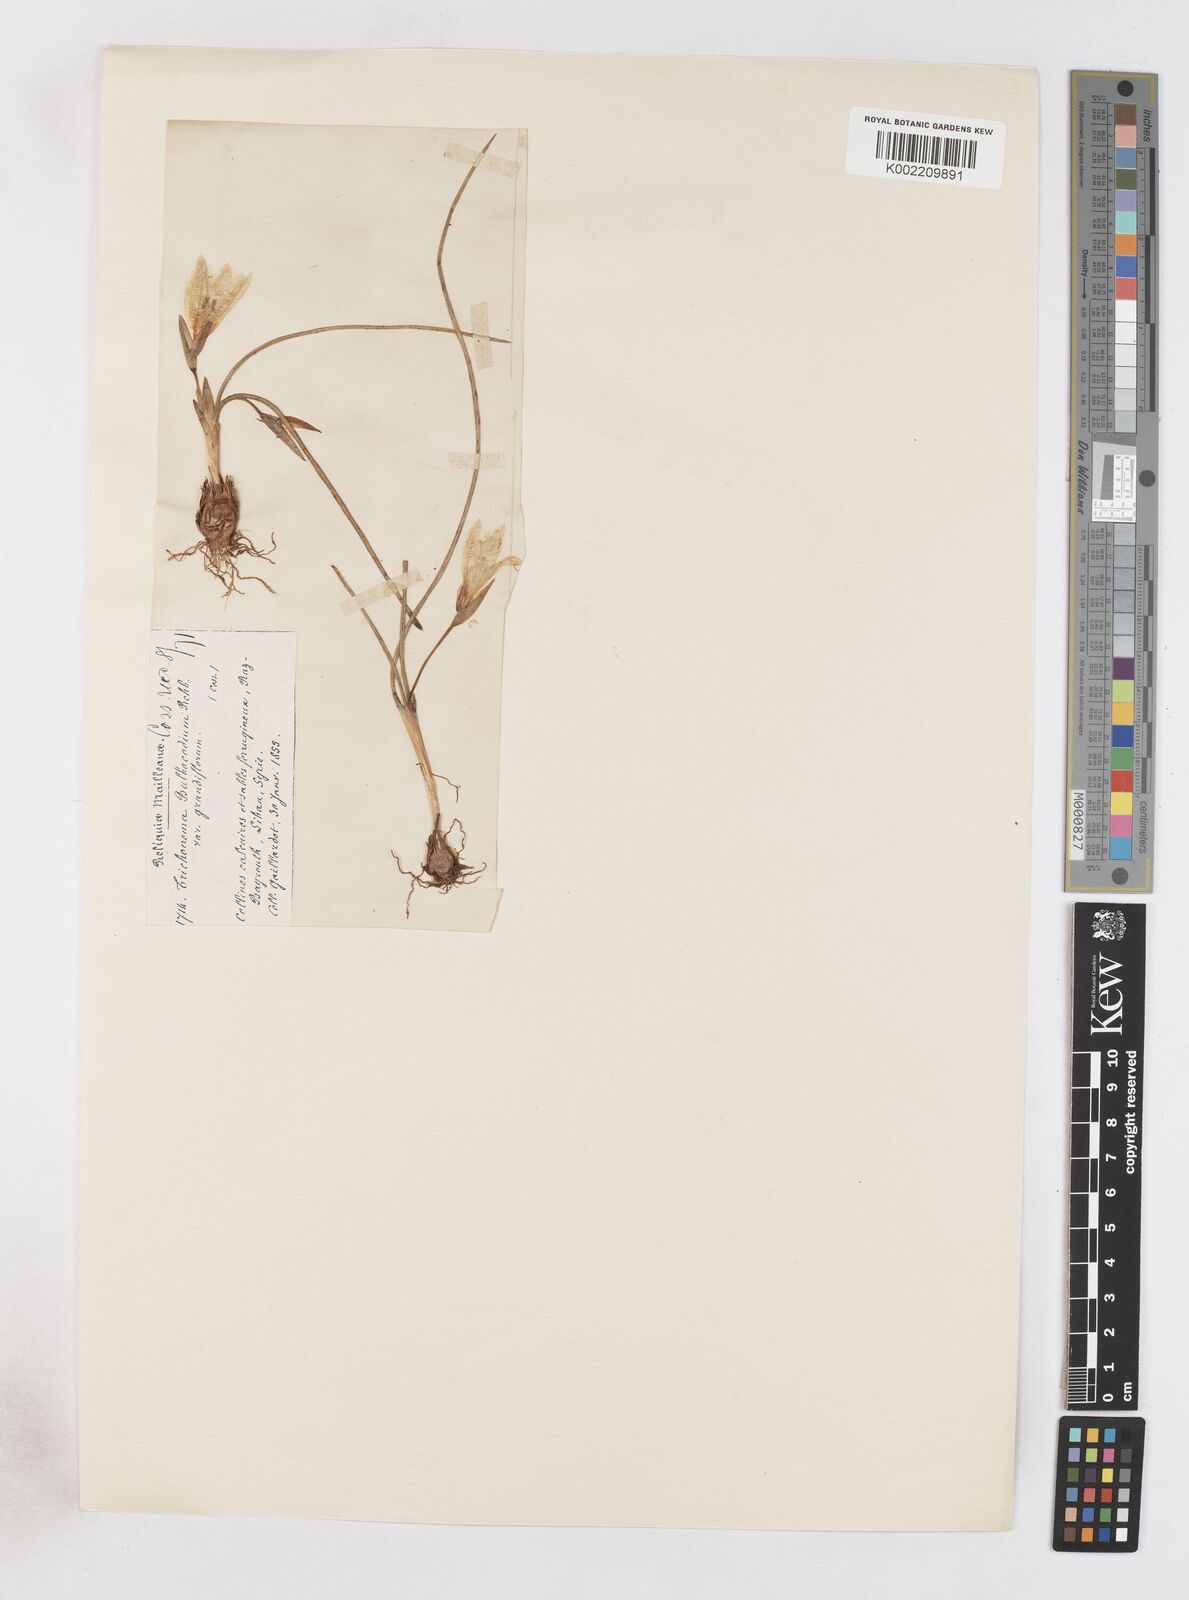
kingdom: Plantae
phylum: Tracheophyta
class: Liliopsida
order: Asparagales
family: Iridaceae
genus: Romulea
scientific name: Romulea bulbocodium
